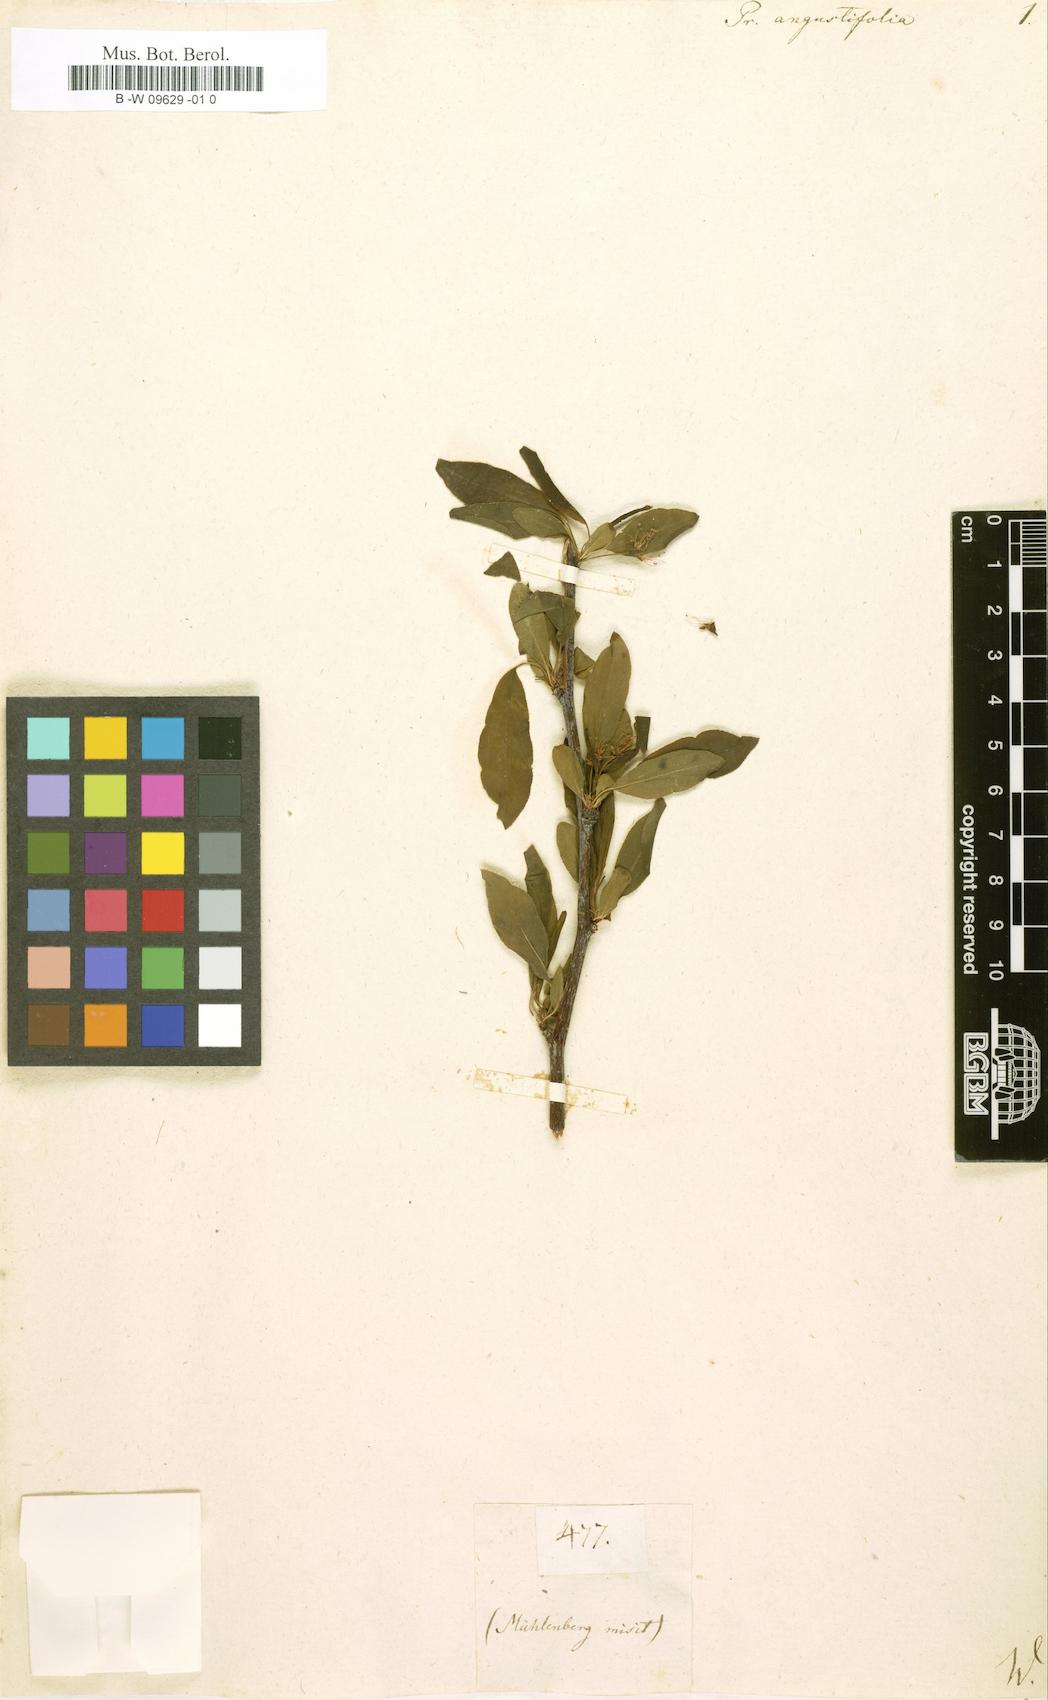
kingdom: Plantae
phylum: Tracheophyta
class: Magnoliopsida
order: Rosales
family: Rosaceae
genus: Prunus
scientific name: Prunus angustifolia
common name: Cherokee plum
